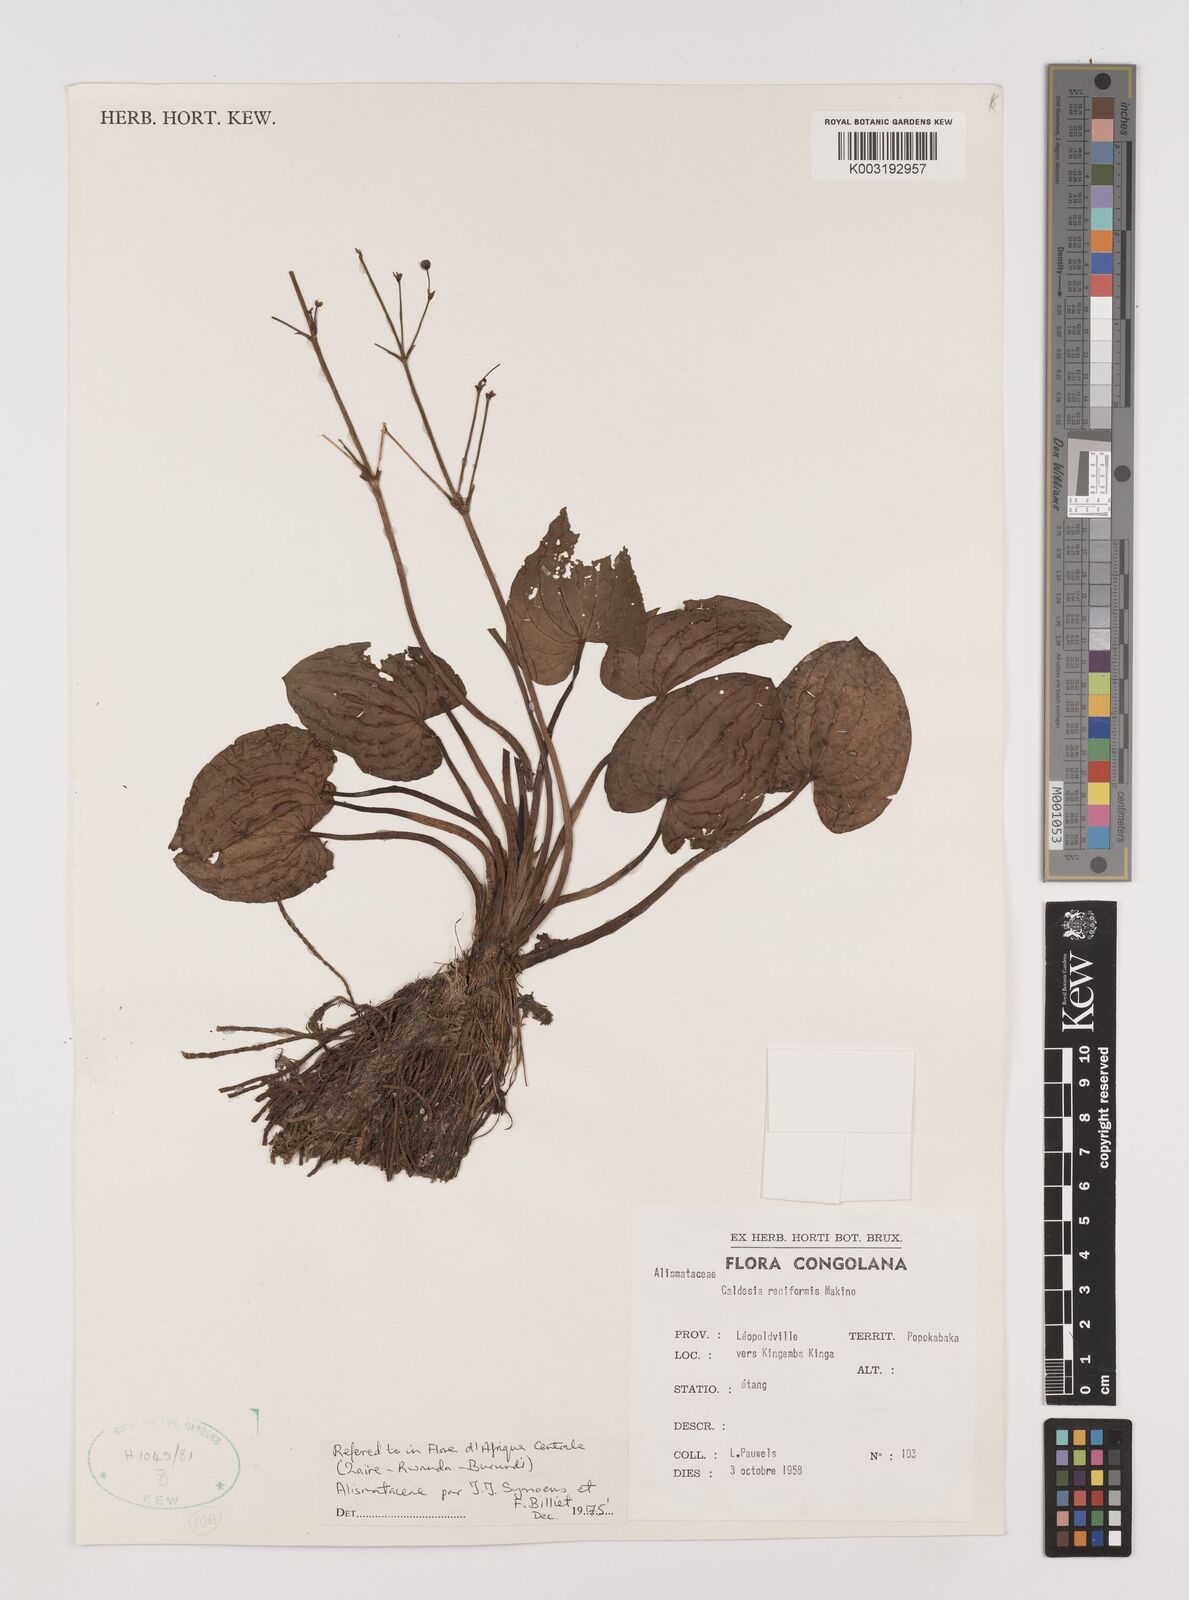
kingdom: Plantae
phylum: Tracheophyta
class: Liliopsida
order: Alismatales
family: Alismataceae
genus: Caldesia
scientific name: Caldesia parnassifolia
